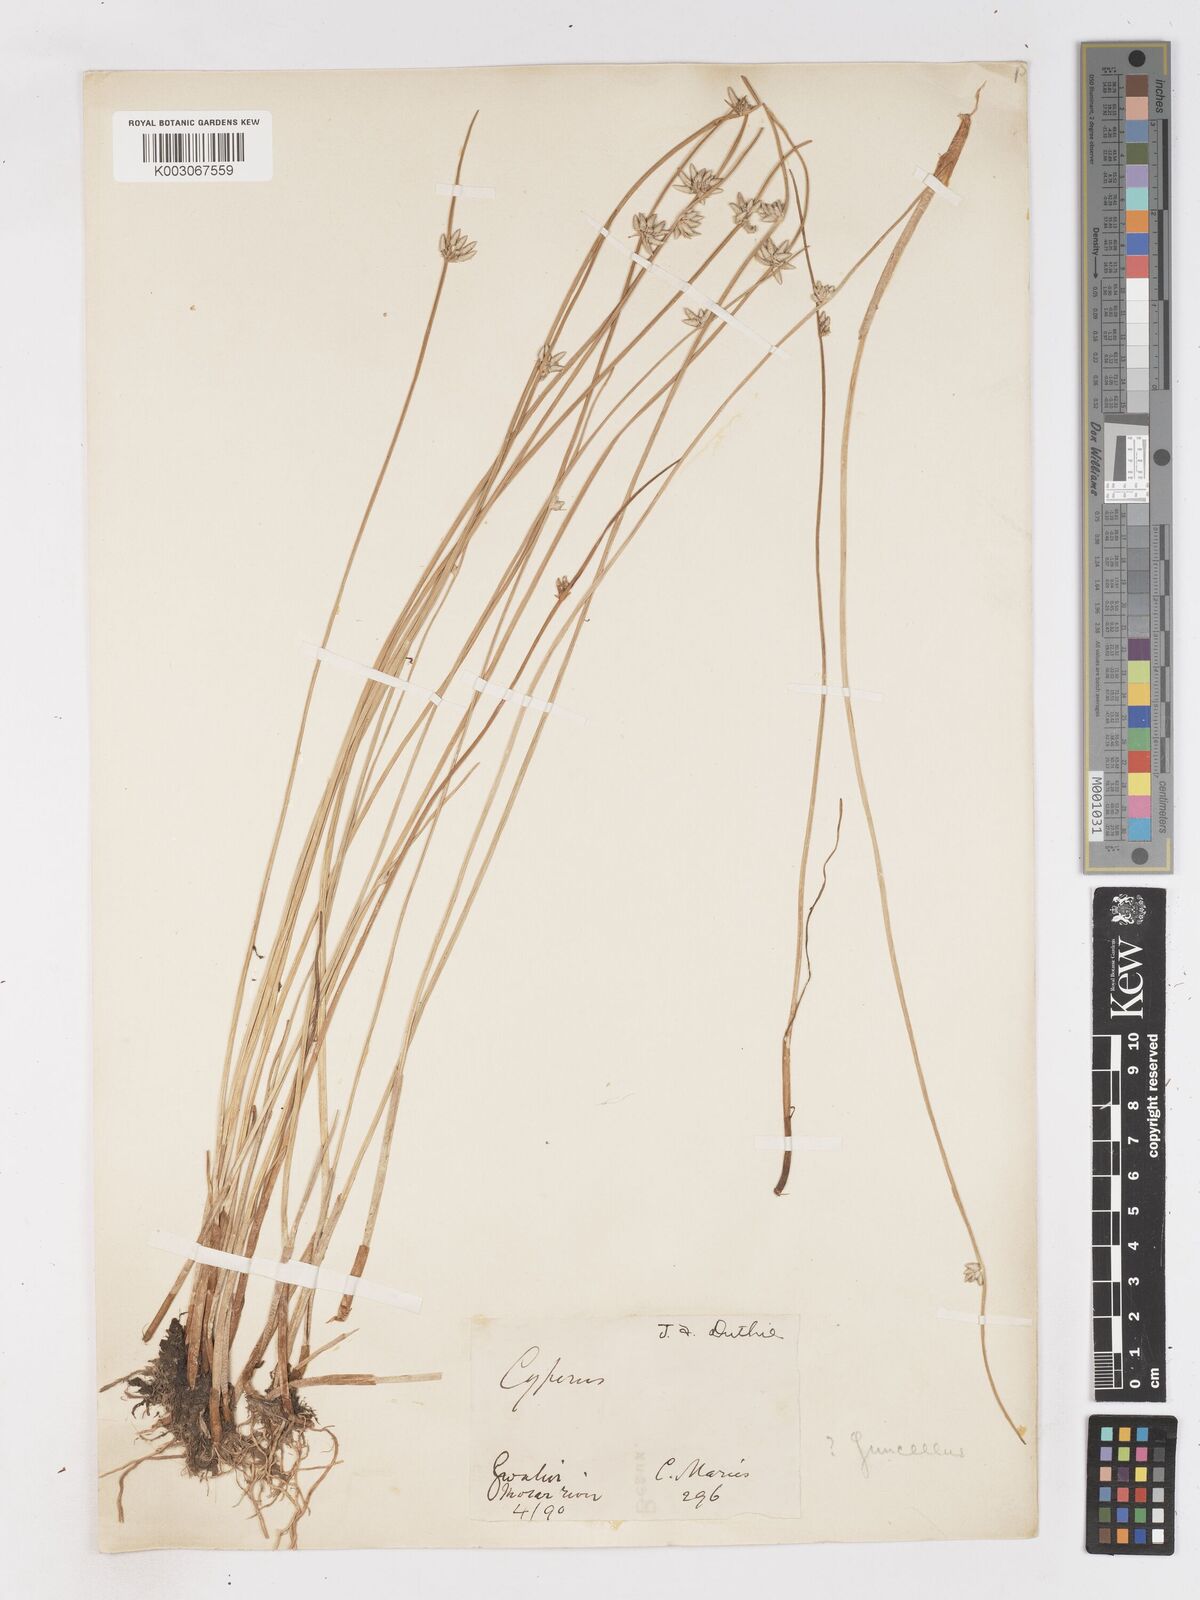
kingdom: Plantae
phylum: Tracheophyta
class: Liliopsida
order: Poales
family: Cyperaceae
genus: Cyperus
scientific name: Cyperus laevigatus
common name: Smooth flat sedge
